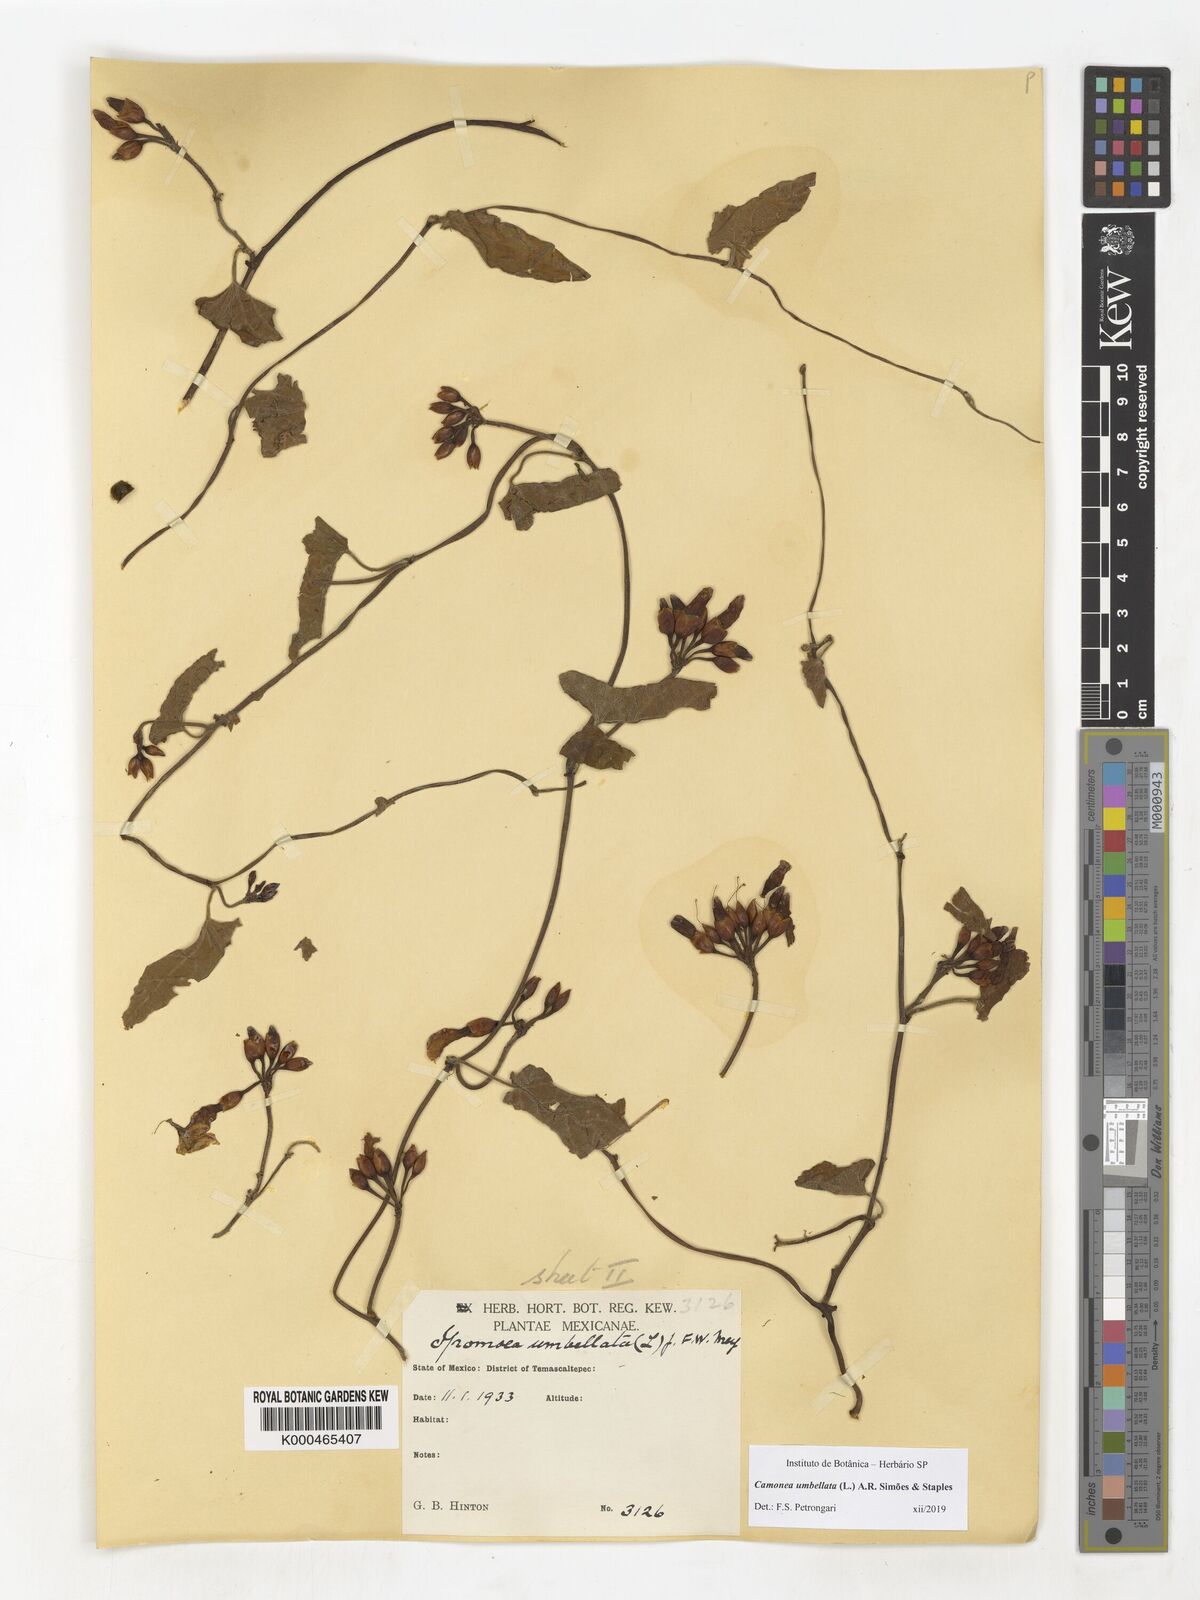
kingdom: Plantae
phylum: Tracheophyta
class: Magnoliopsida
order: Solanales
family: Convolvulaceae
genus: Camonea
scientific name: Camonea umbellata
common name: Hogvine
